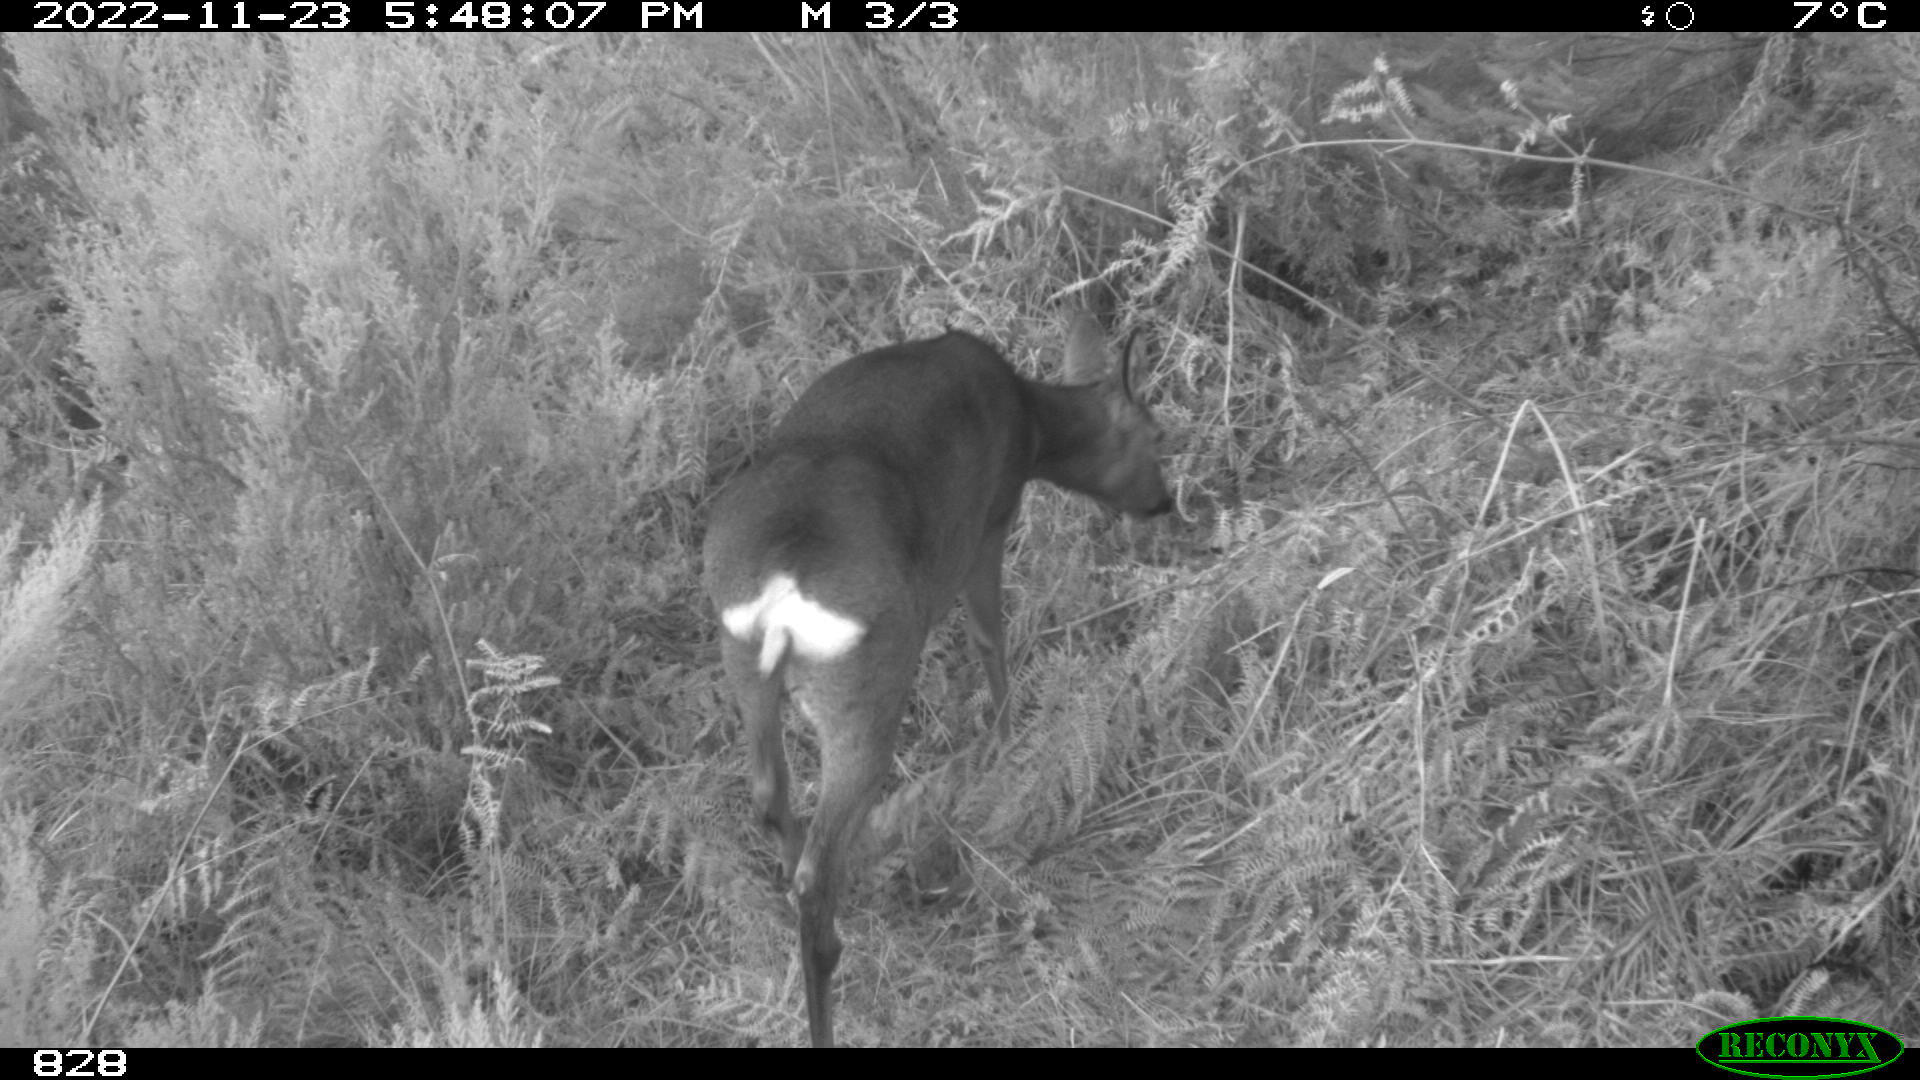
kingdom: Animalia
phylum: Chordata
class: Mammalia
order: Artiodactyla
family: Cervidae
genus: Capreolus
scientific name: Capreolus capreolus
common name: Western roe deer
